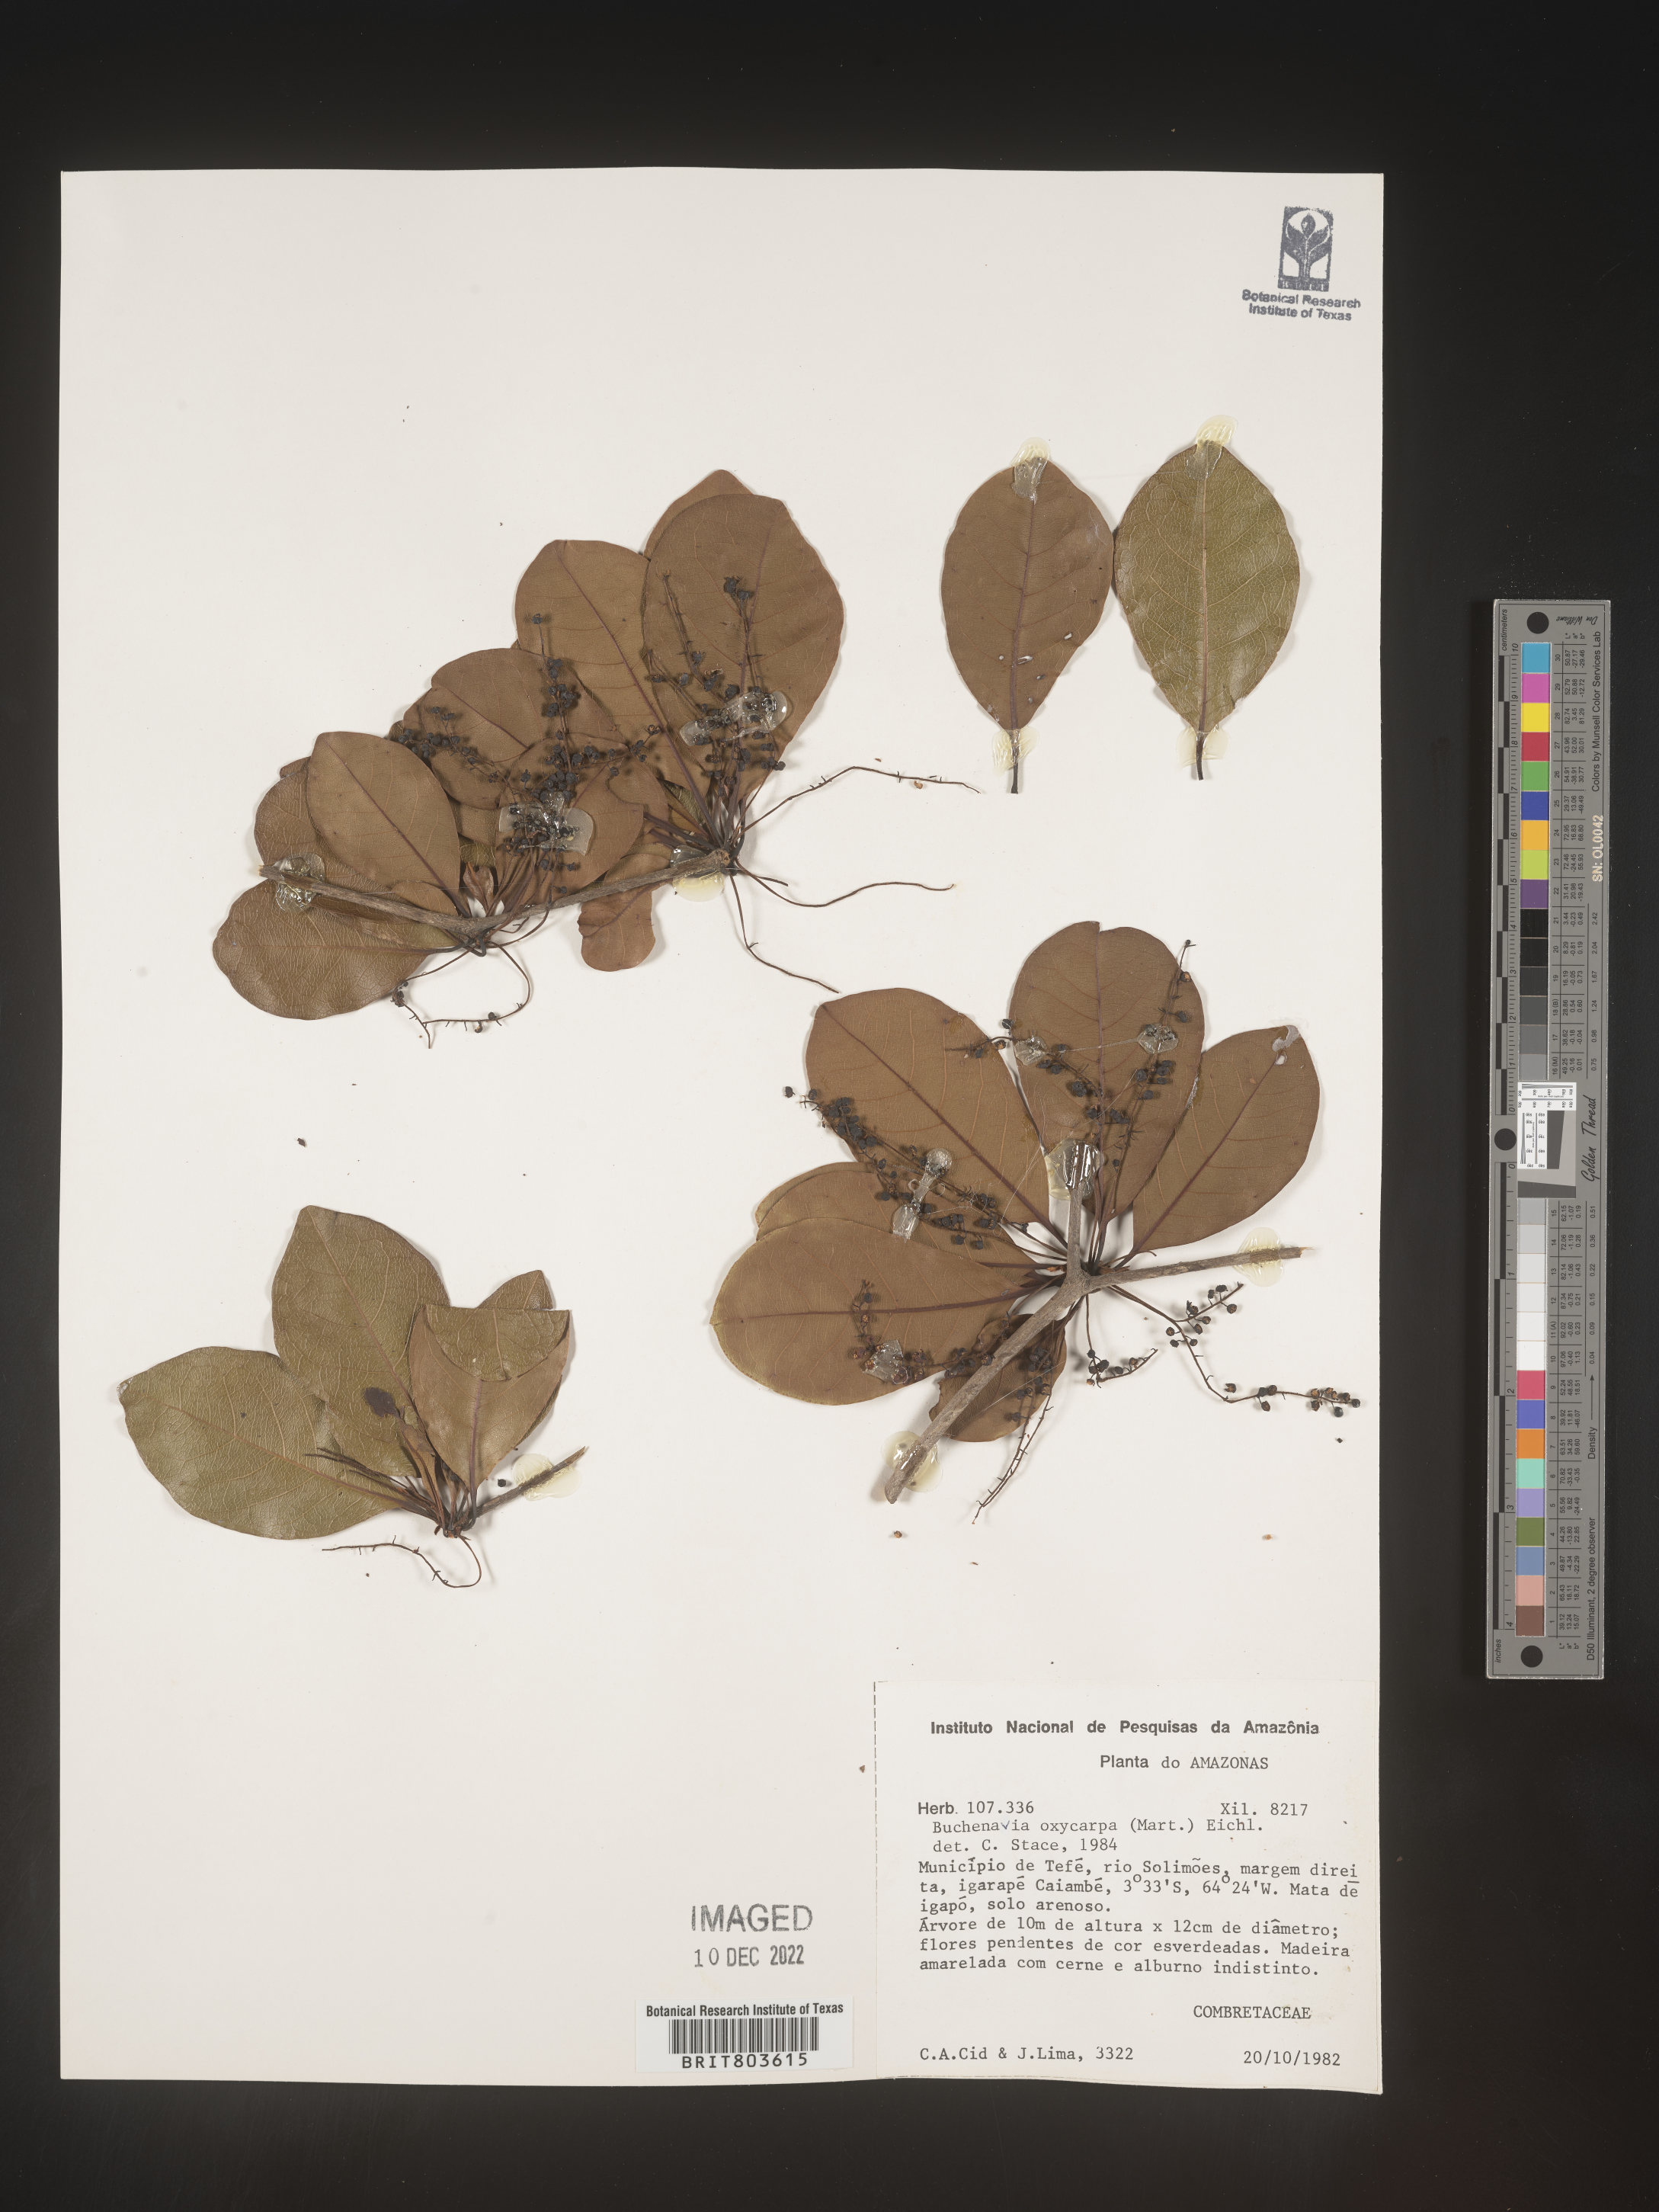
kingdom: Plantae
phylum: Tracheophyta
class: Magnoliopsida
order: Myrtales
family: Combretaceae
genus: Terminalia
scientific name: Terminalia
